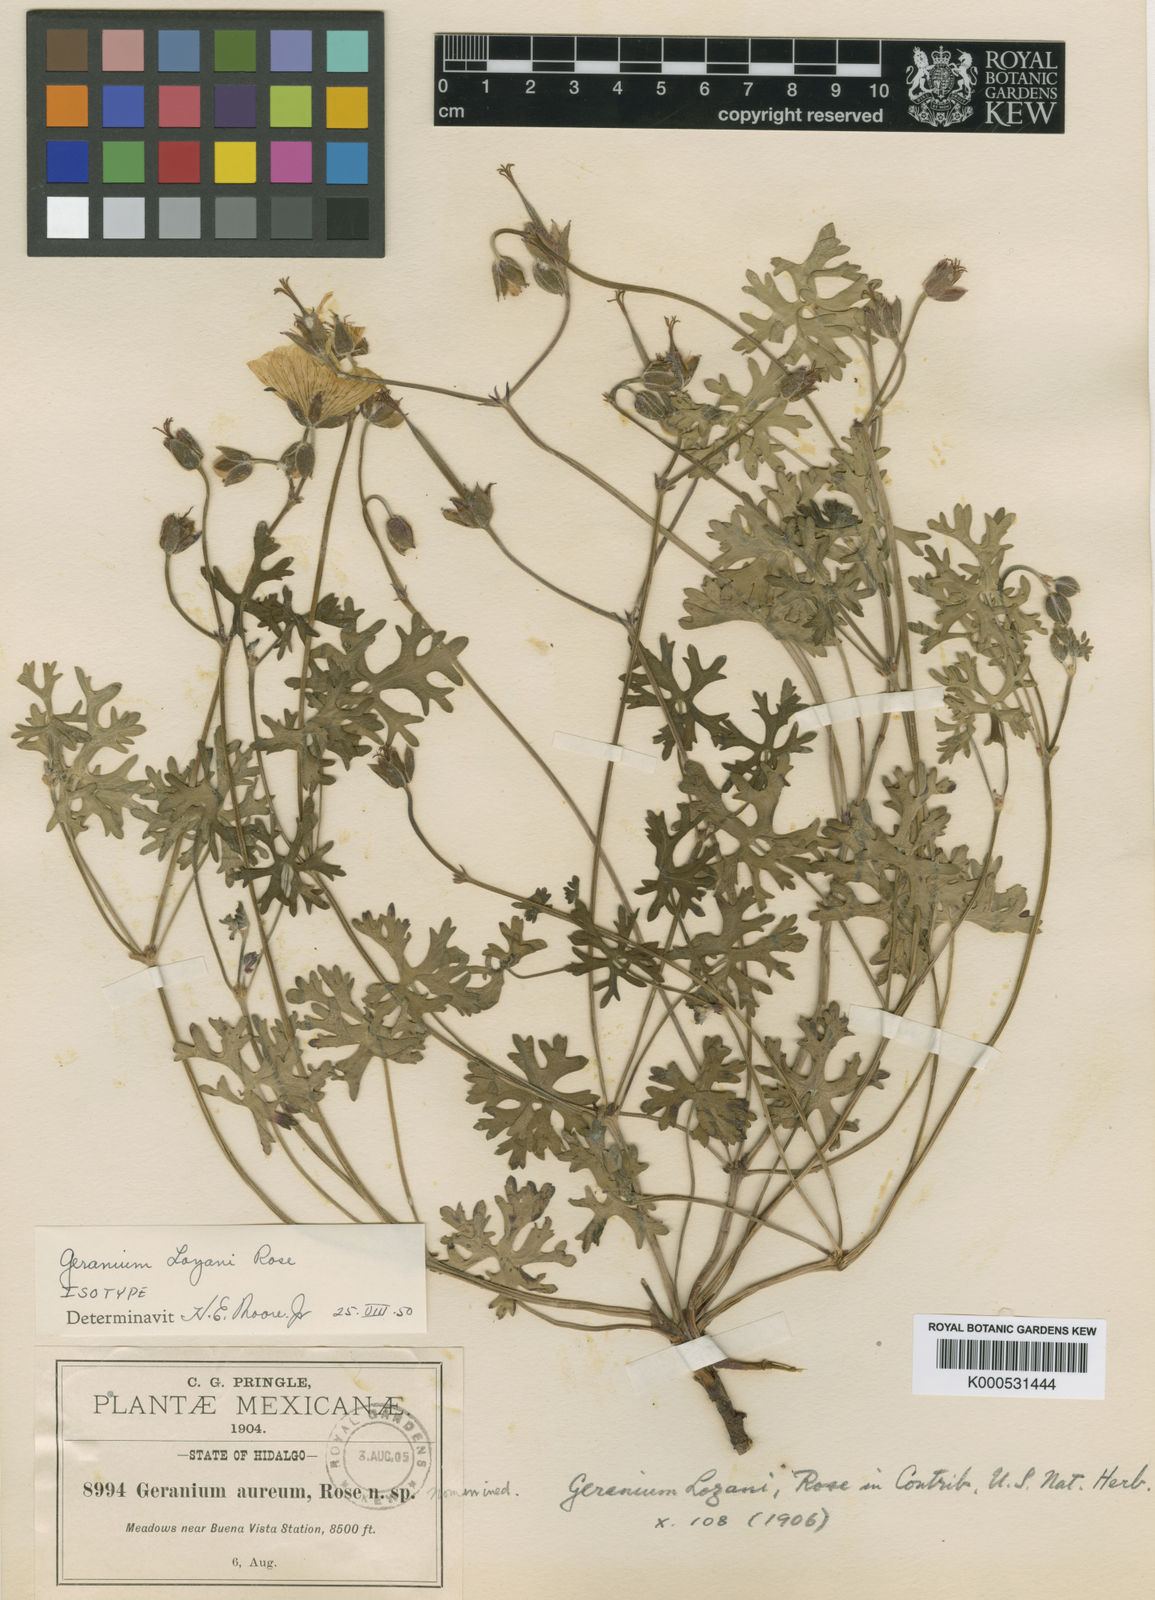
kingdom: Plantae
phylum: Tracheophyta
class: Magnoliopsida
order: Geraniales
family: Geraniaceae
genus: Geranium
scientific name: Geranium
